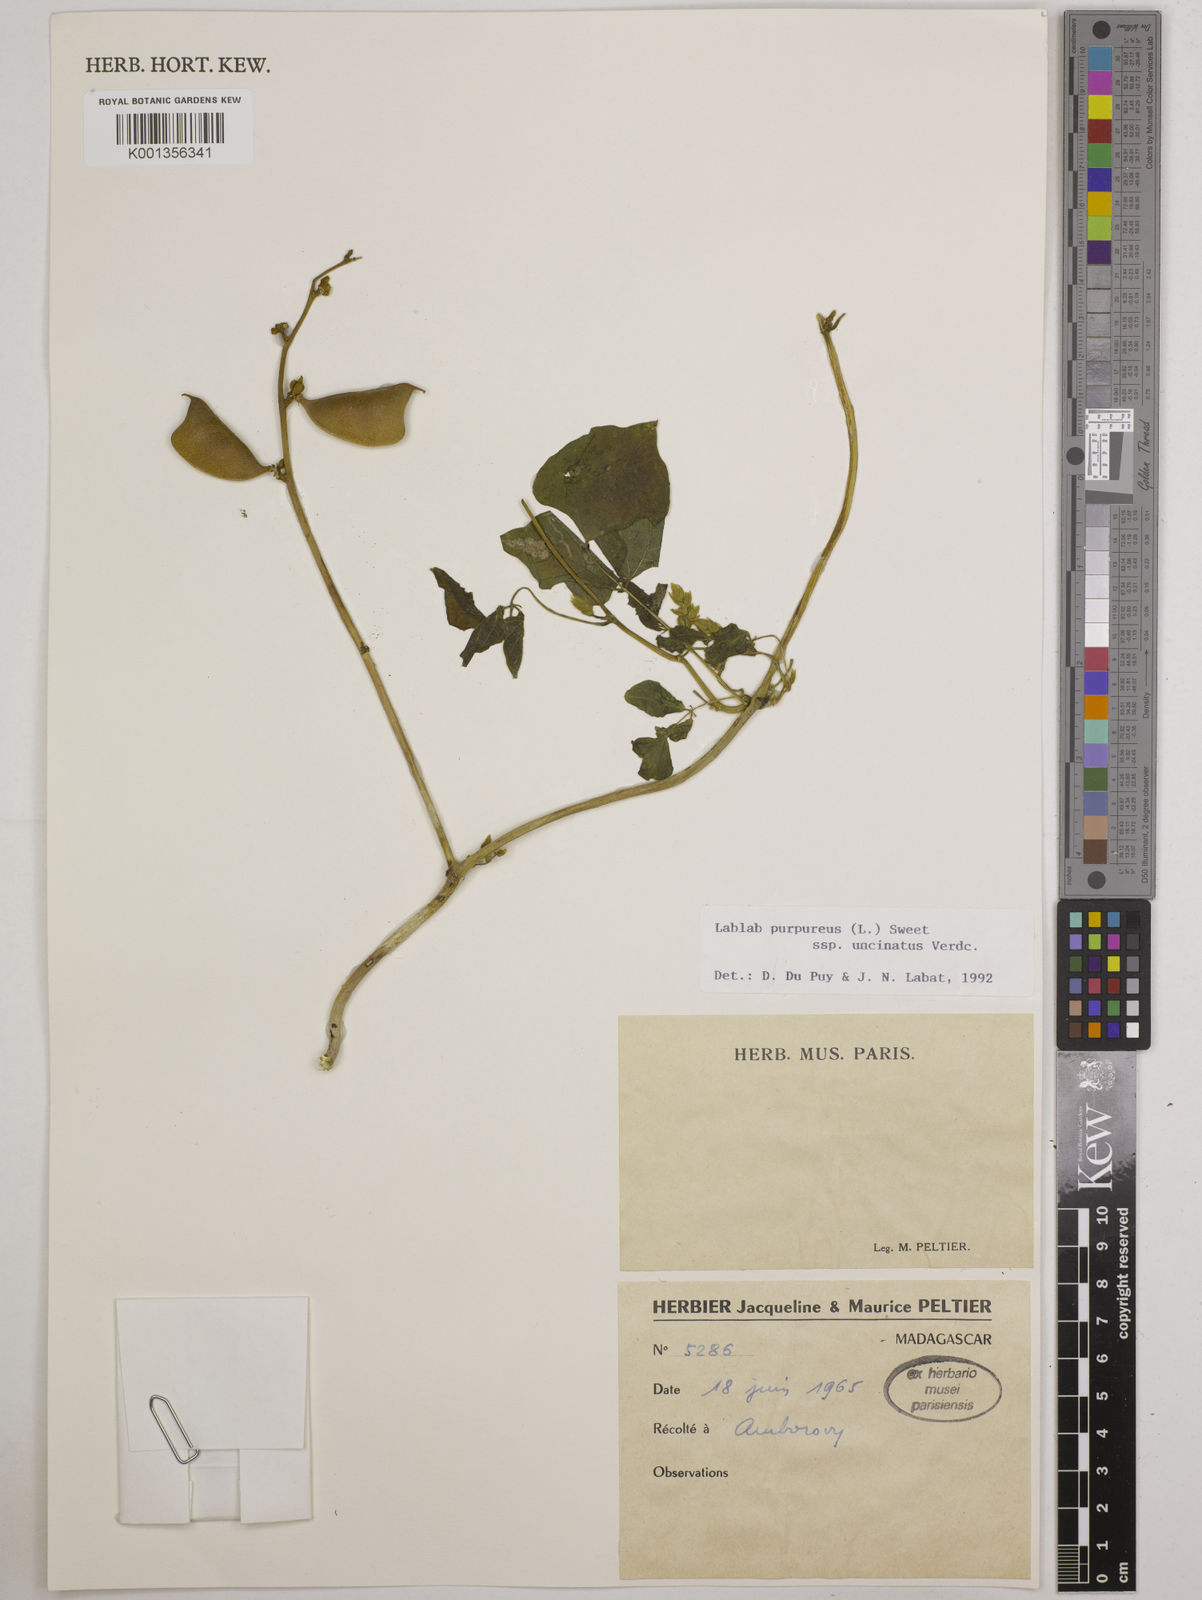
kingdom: Plantae
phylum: Tracheophyta
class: Magnoliopsida
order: Fabales
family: Fabaceae
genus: Lablab
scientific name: Lablab purpureus
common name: Lablab-bean
